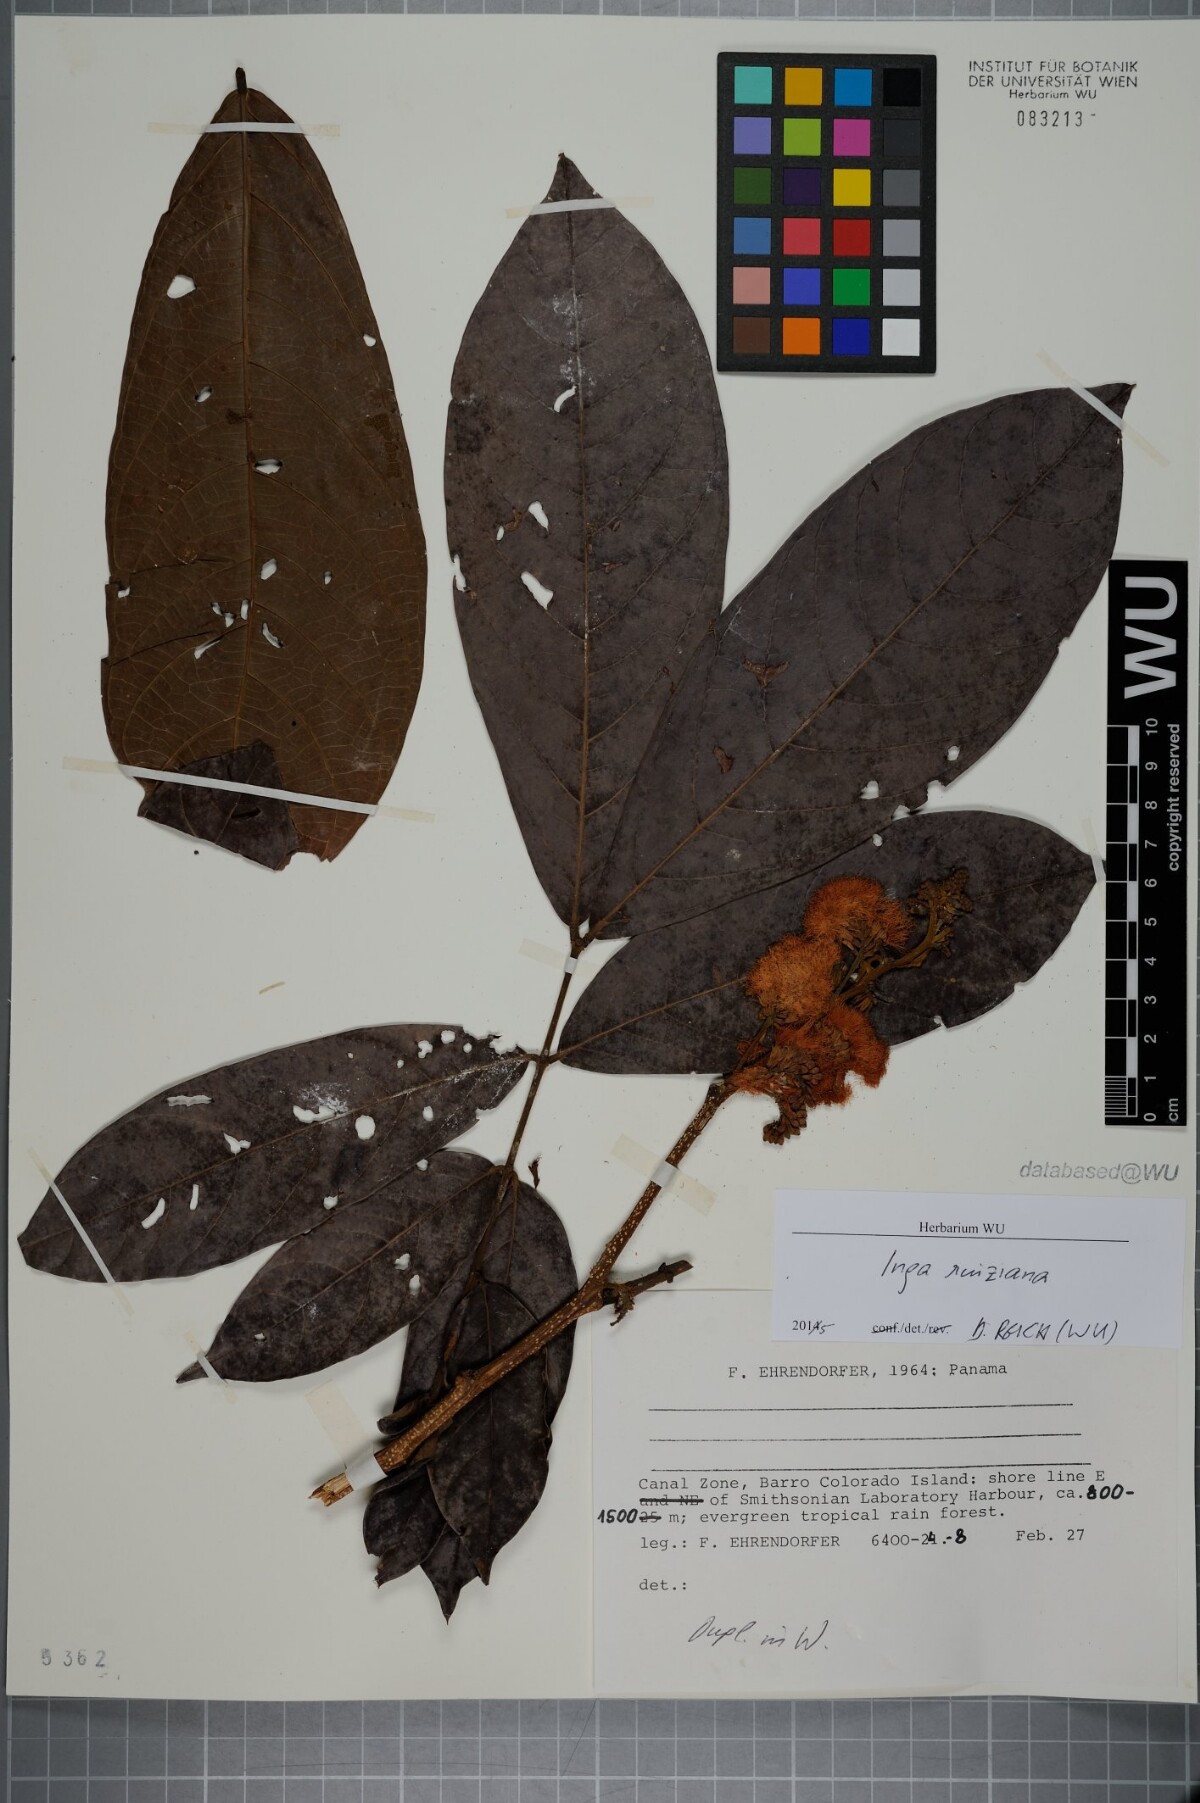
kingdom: Plantae
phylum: Tracheophyta
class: Magnoliopsida
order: Fabales
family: Fabaceae
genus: Inga
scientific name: Inga ruiziana
